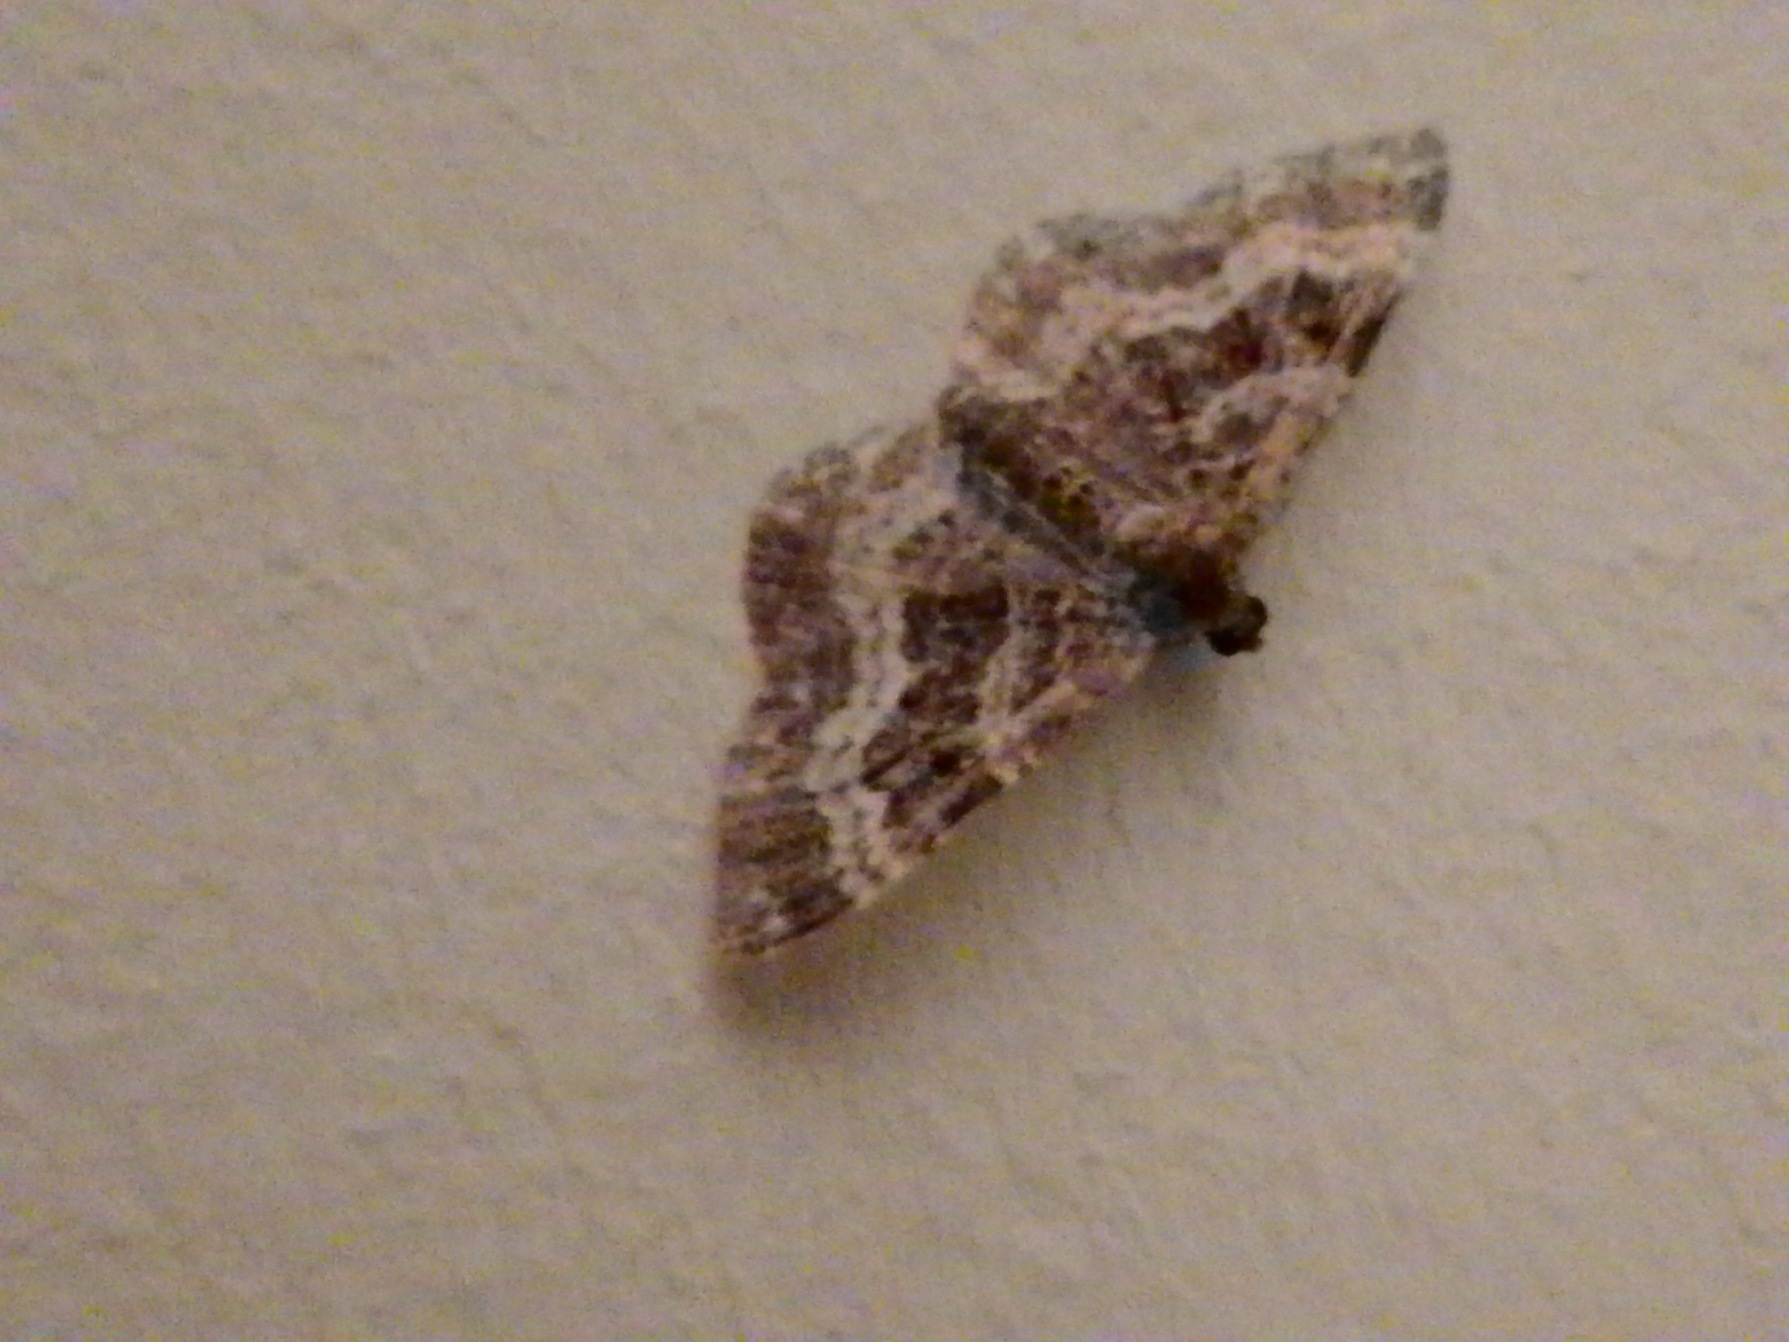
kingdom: Animalia
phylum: Arthropoda
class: Insecta
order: Lepidoptera
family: Geometridae
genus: Epirrhoe
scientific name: Epirrhoe alternata
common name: Almindelig bladmåler
